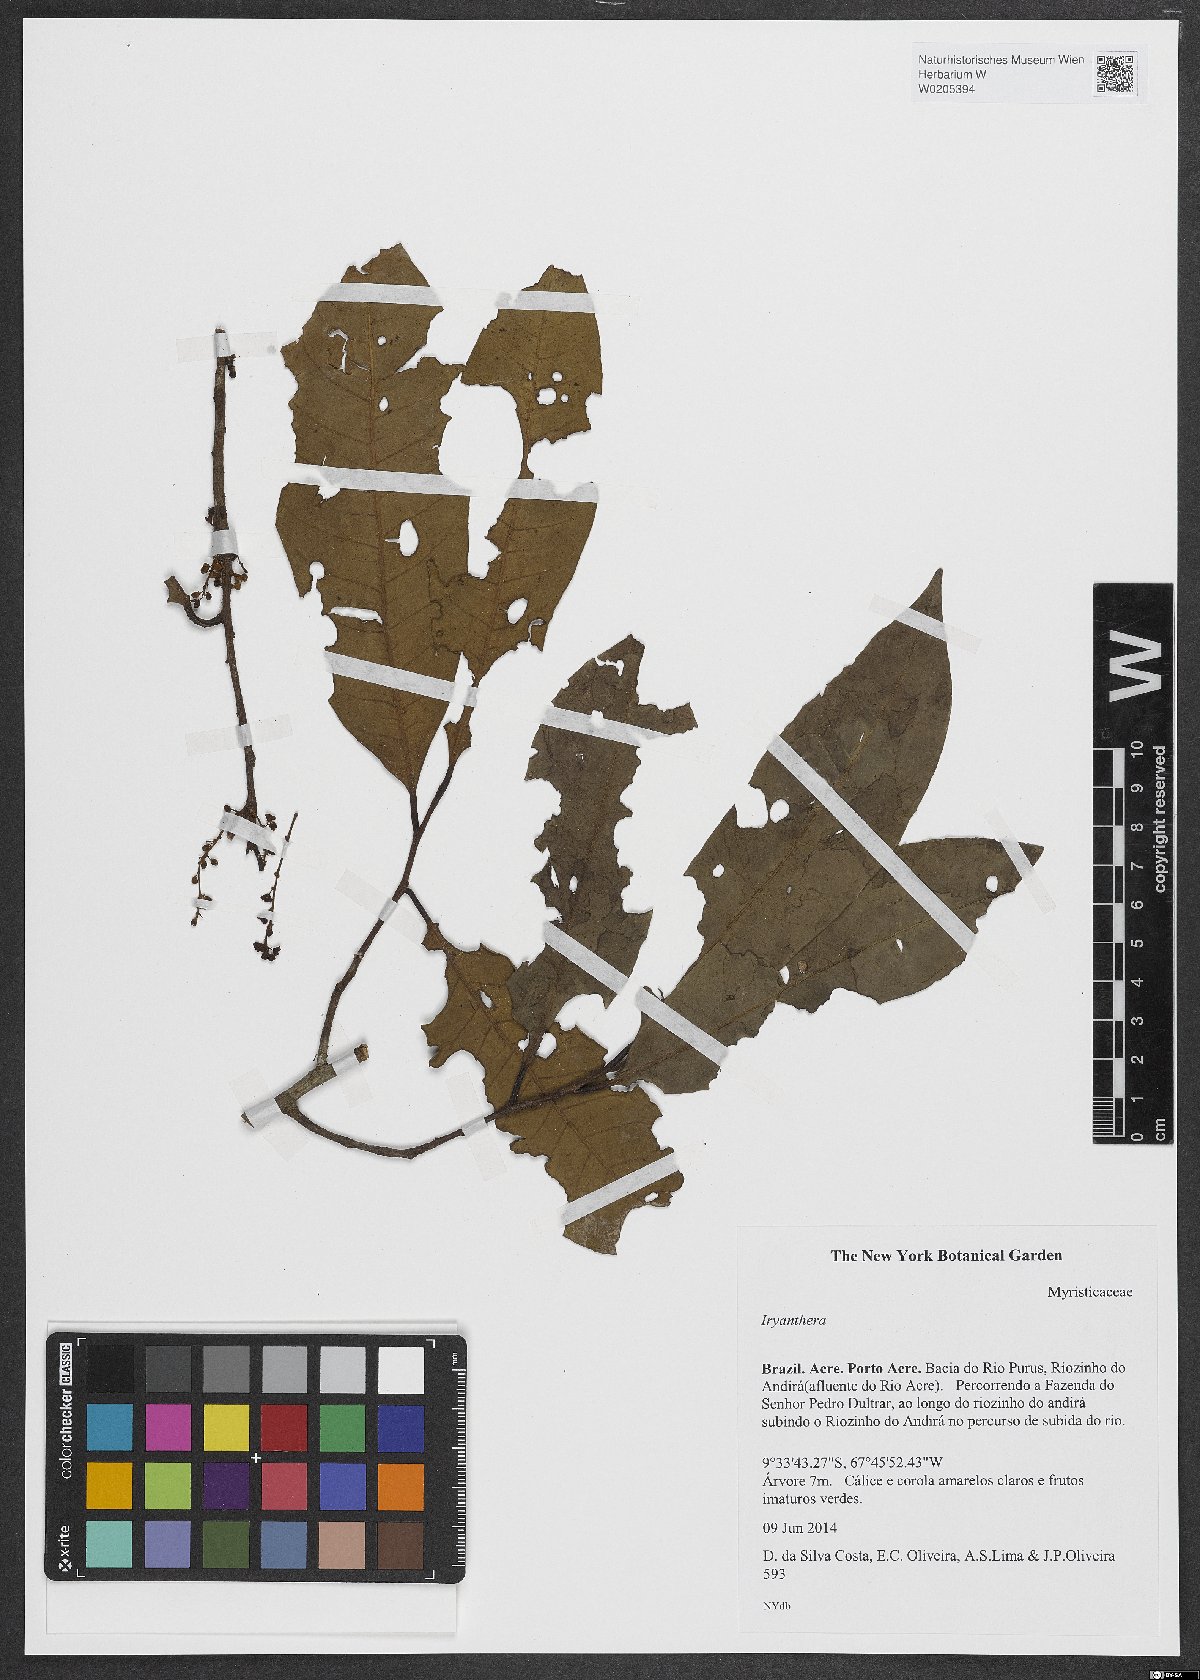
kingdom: Plantae
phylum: Tracheophyta
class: Magnoliopsida
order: Magnoliales
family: Myristicaceae
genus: Iryanthera
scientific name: Iryanthera
